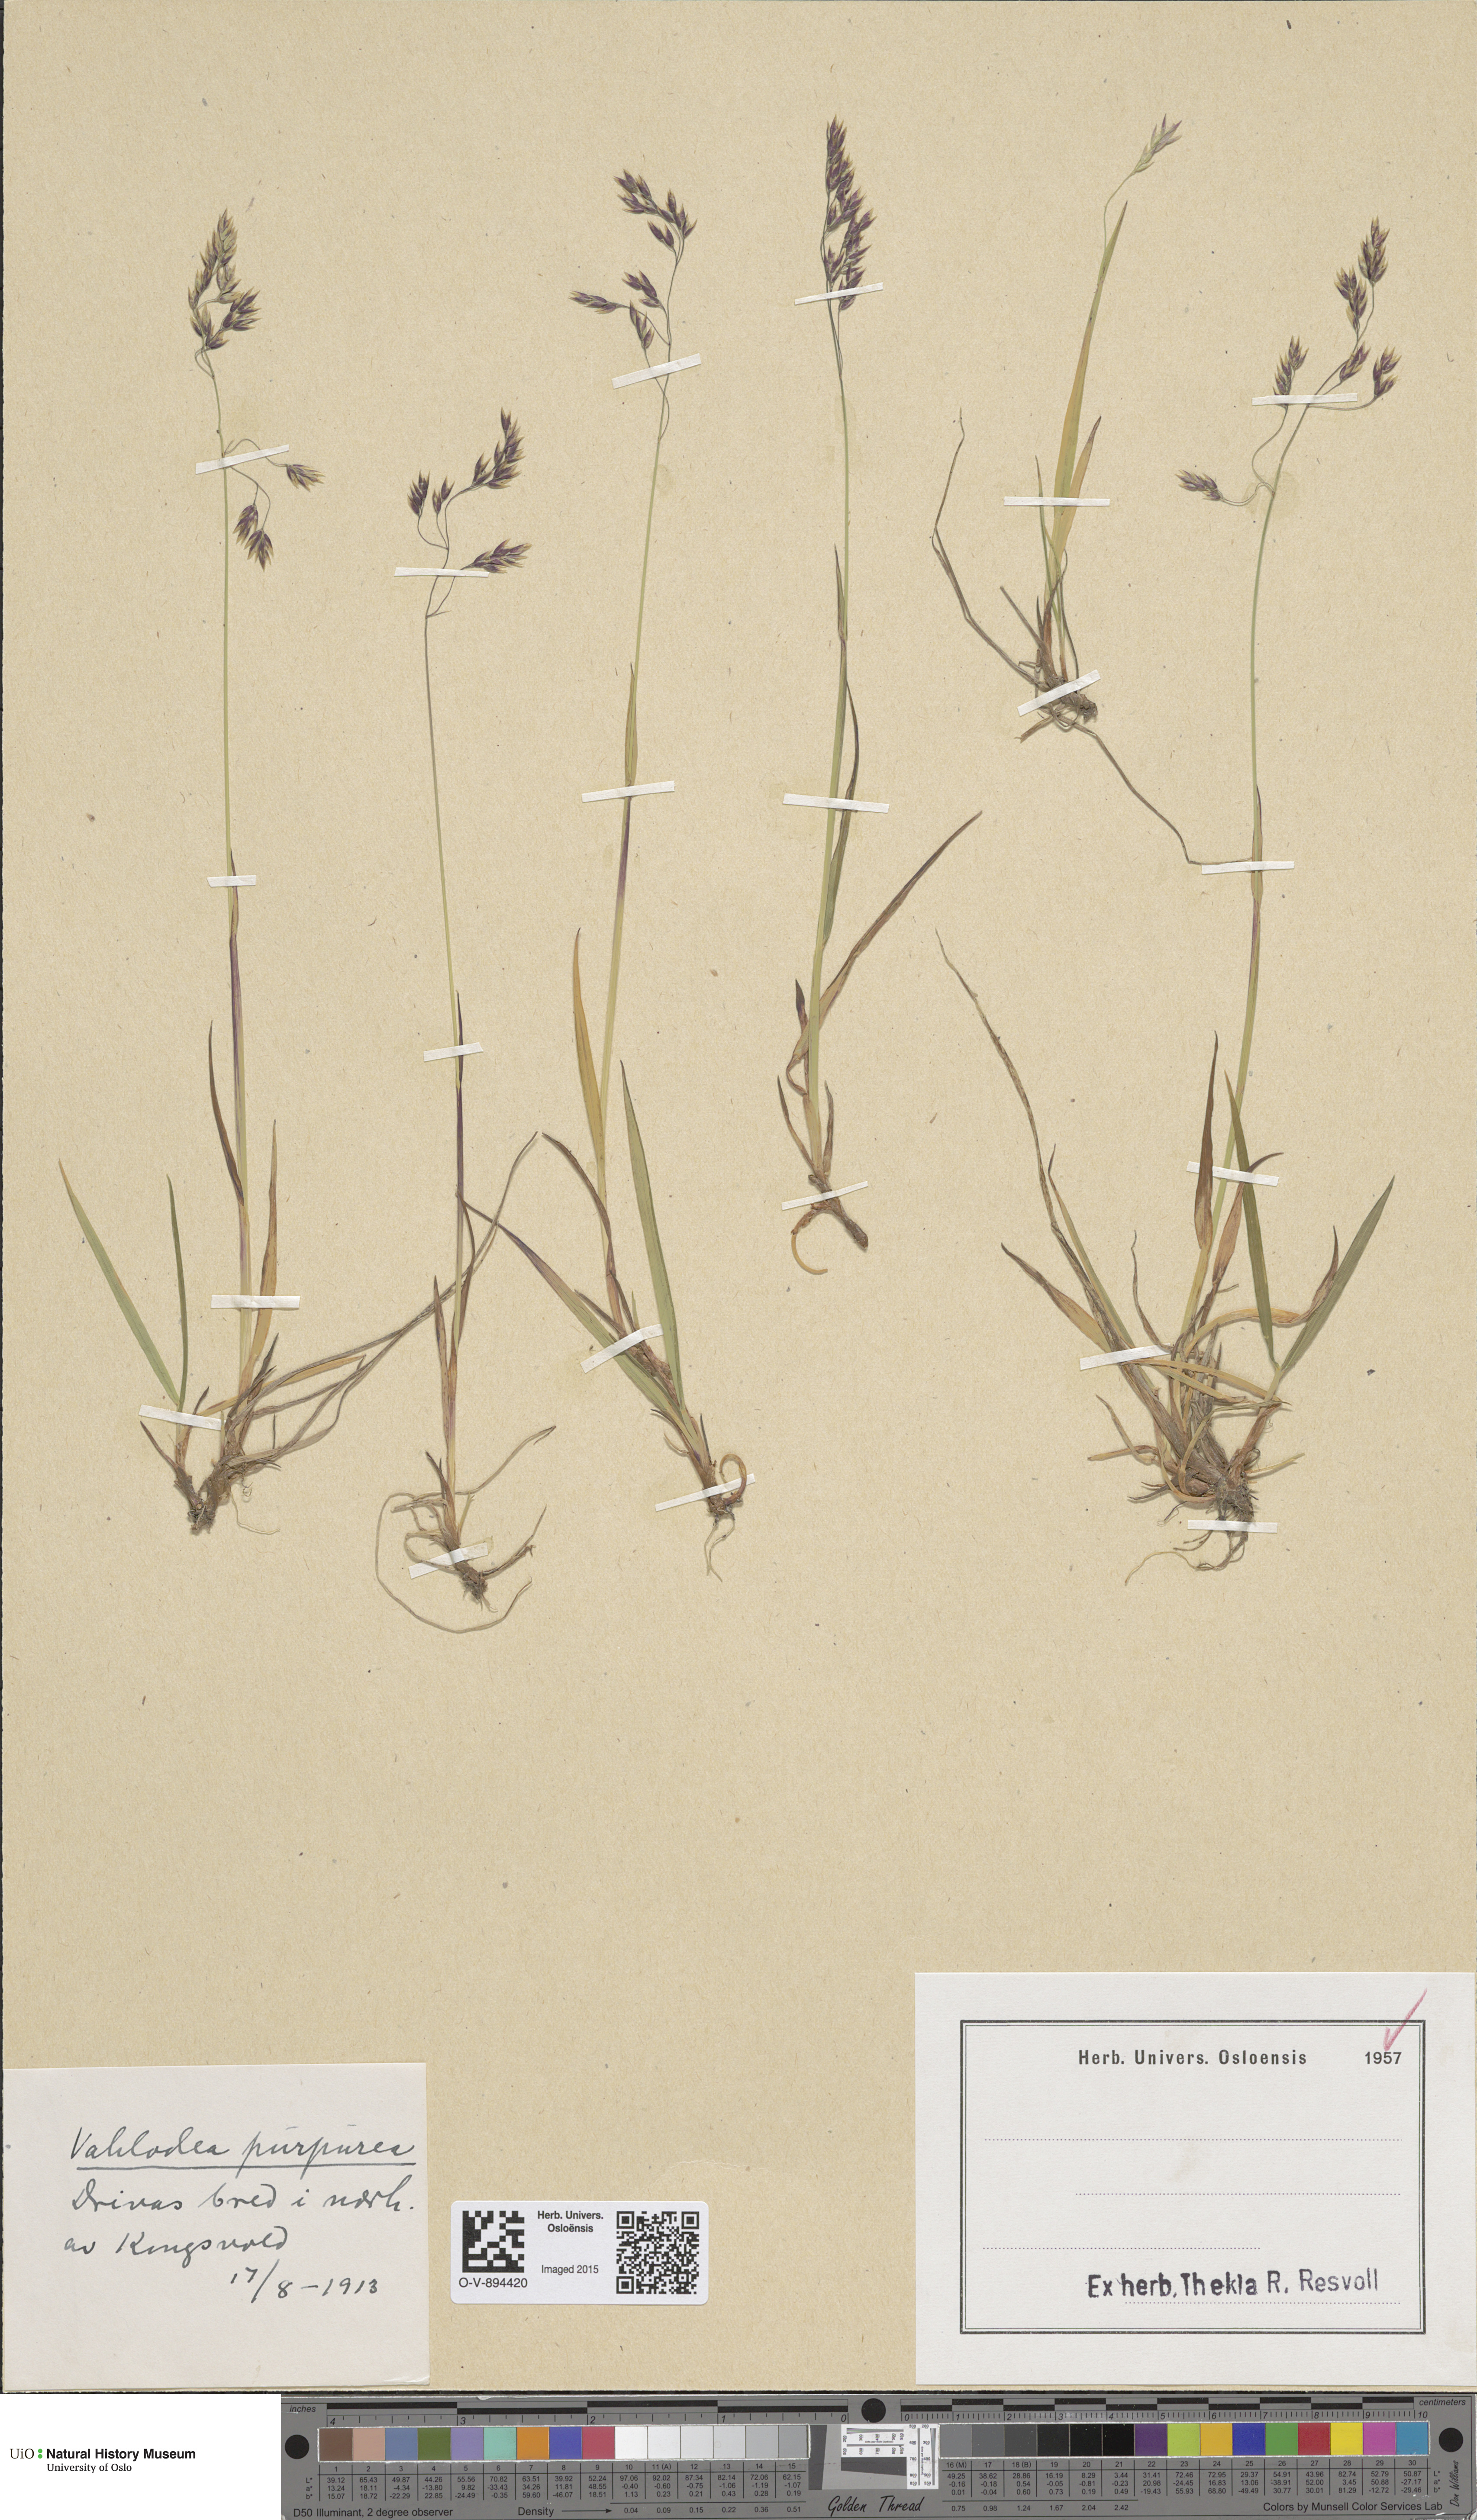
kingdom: Plantae
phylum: Tracheophyta
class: Liliopsida
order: Poales
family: Poaceae
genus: Vahlodea
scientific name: Vahlodea atropurpurea
